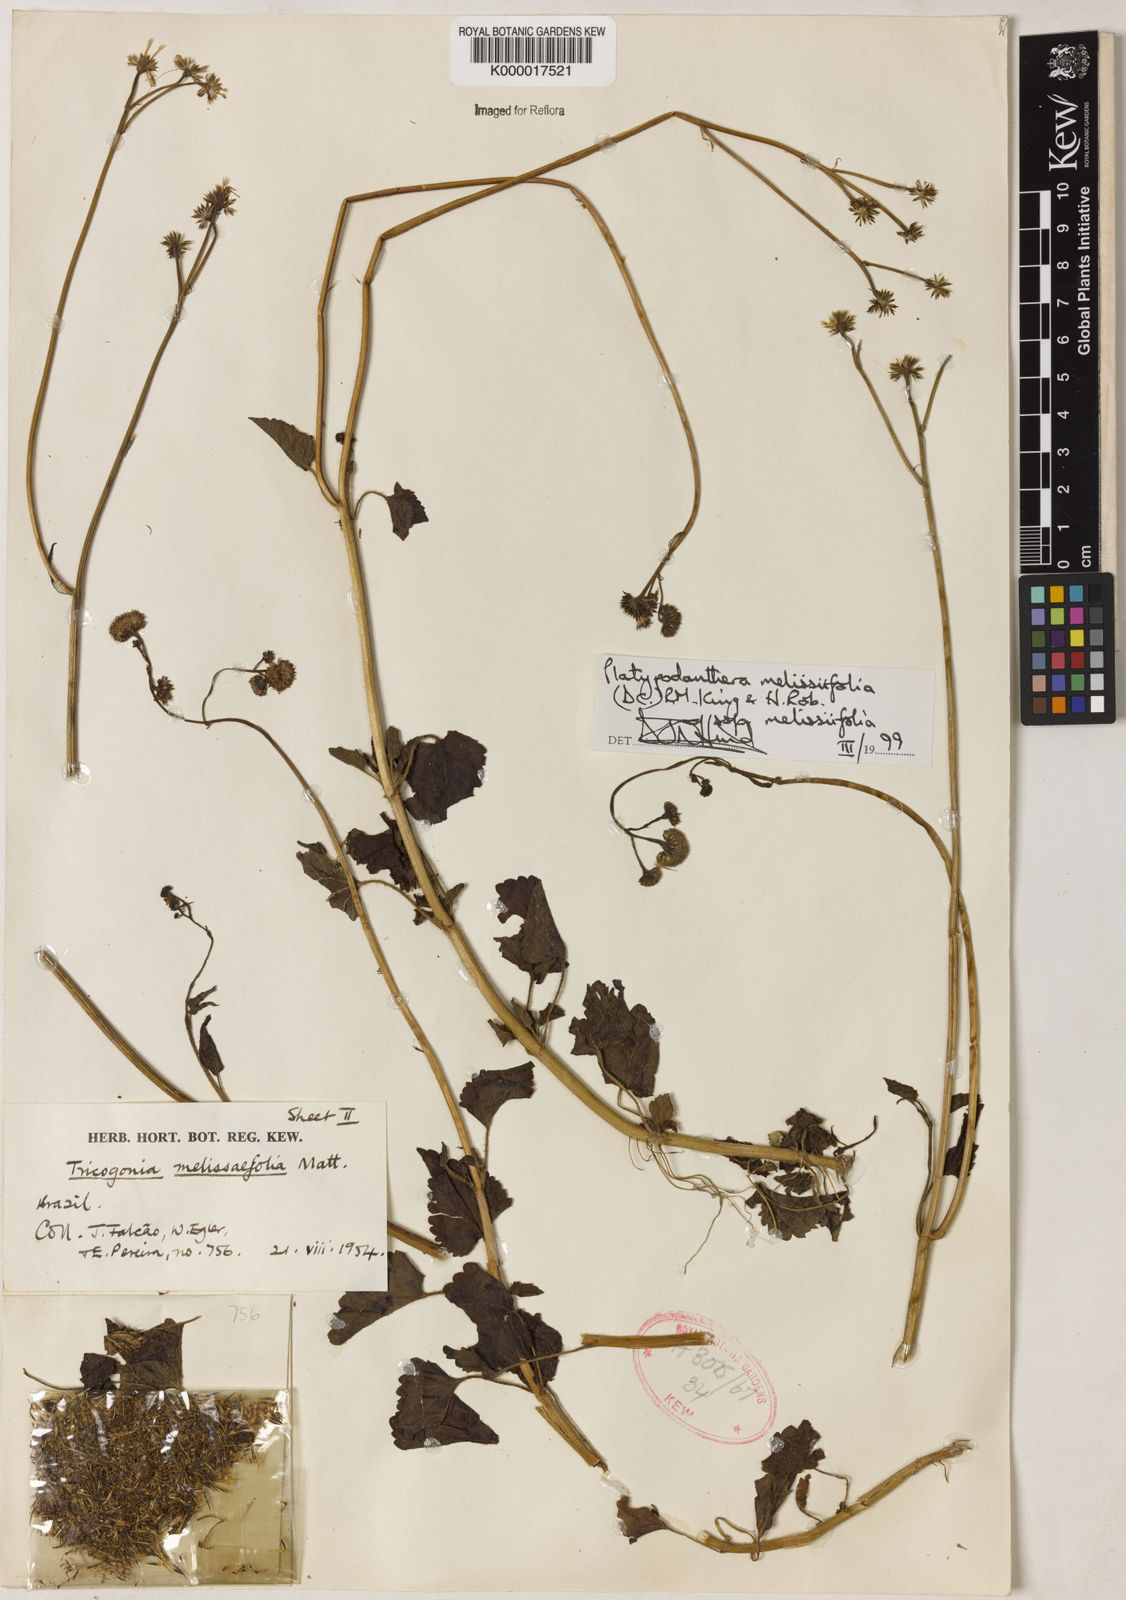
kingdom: Plantae
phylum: Tracheophyta
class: Magnoliopsida
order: Asterales
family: Asteraceae
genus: Platypodanthera
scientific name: Platypodanthera melissifolia
